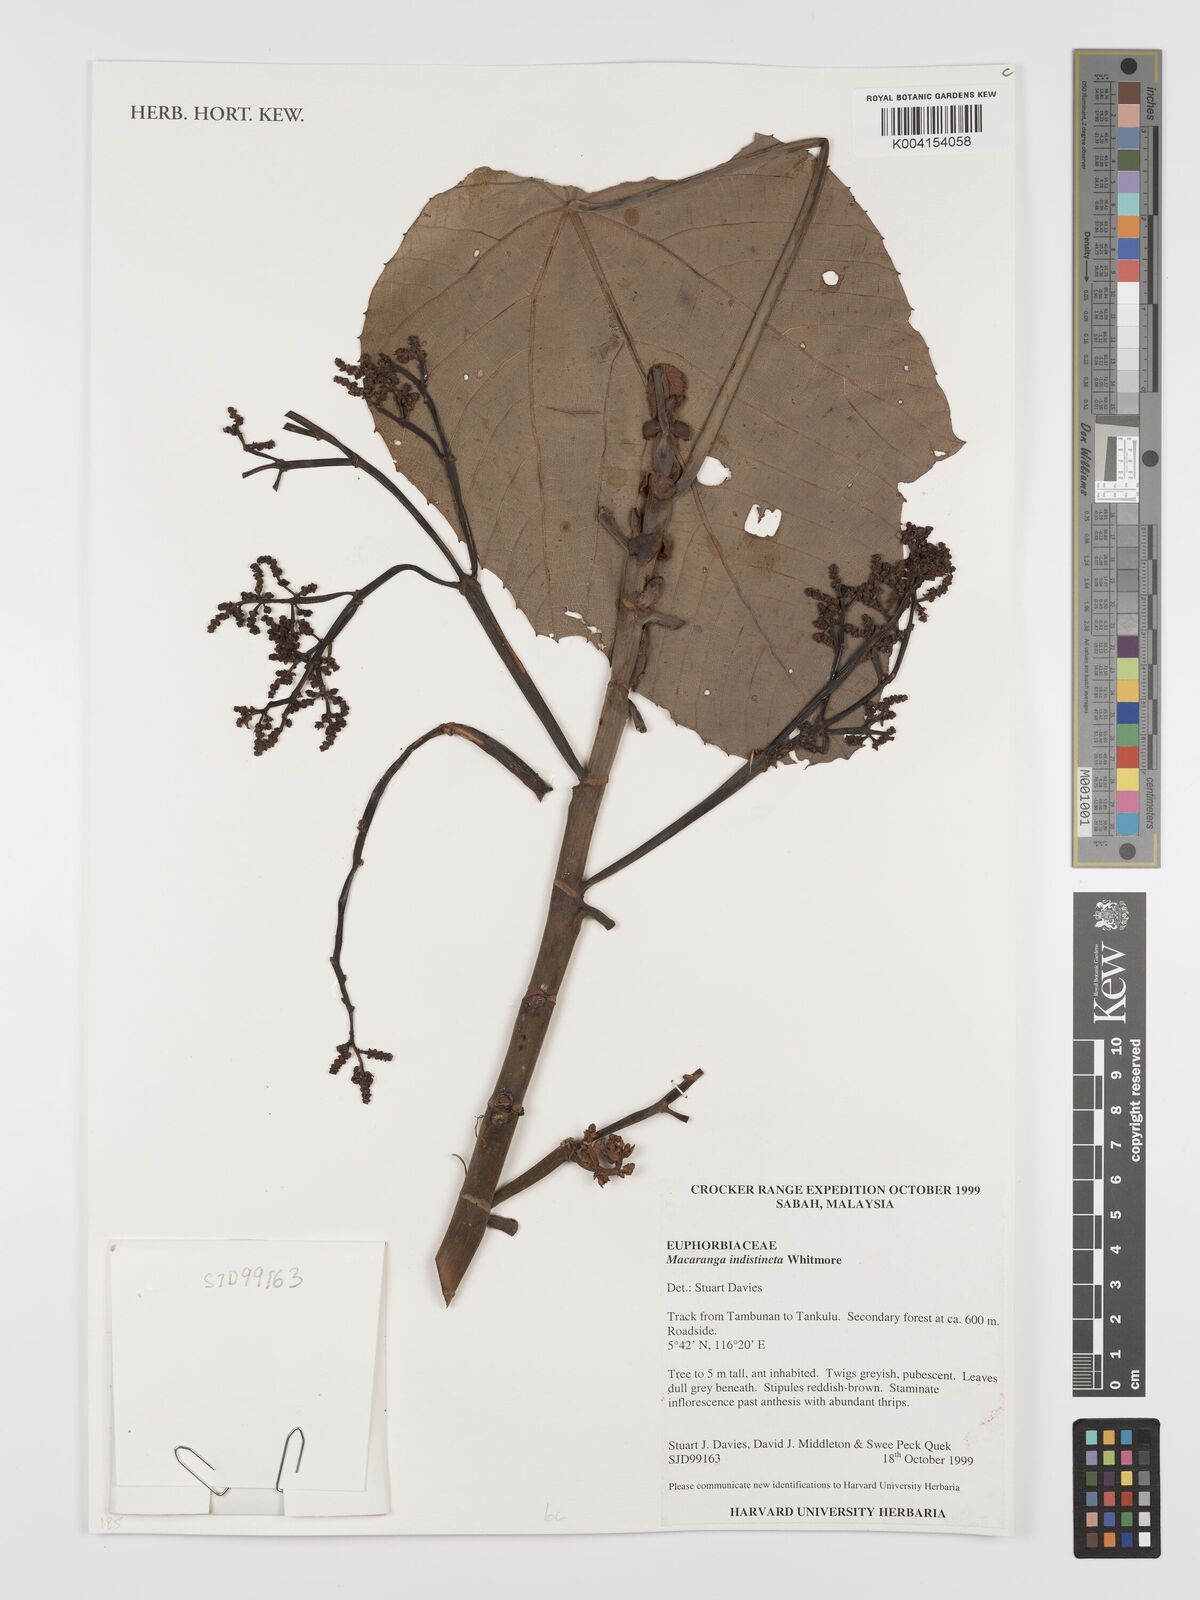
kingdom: Plantae
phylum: Tracheophyta
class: Magnoliopsida
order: Malpighiales
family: Euphorbiaceae
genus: Macaranga
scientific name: Macaranga indistincta
